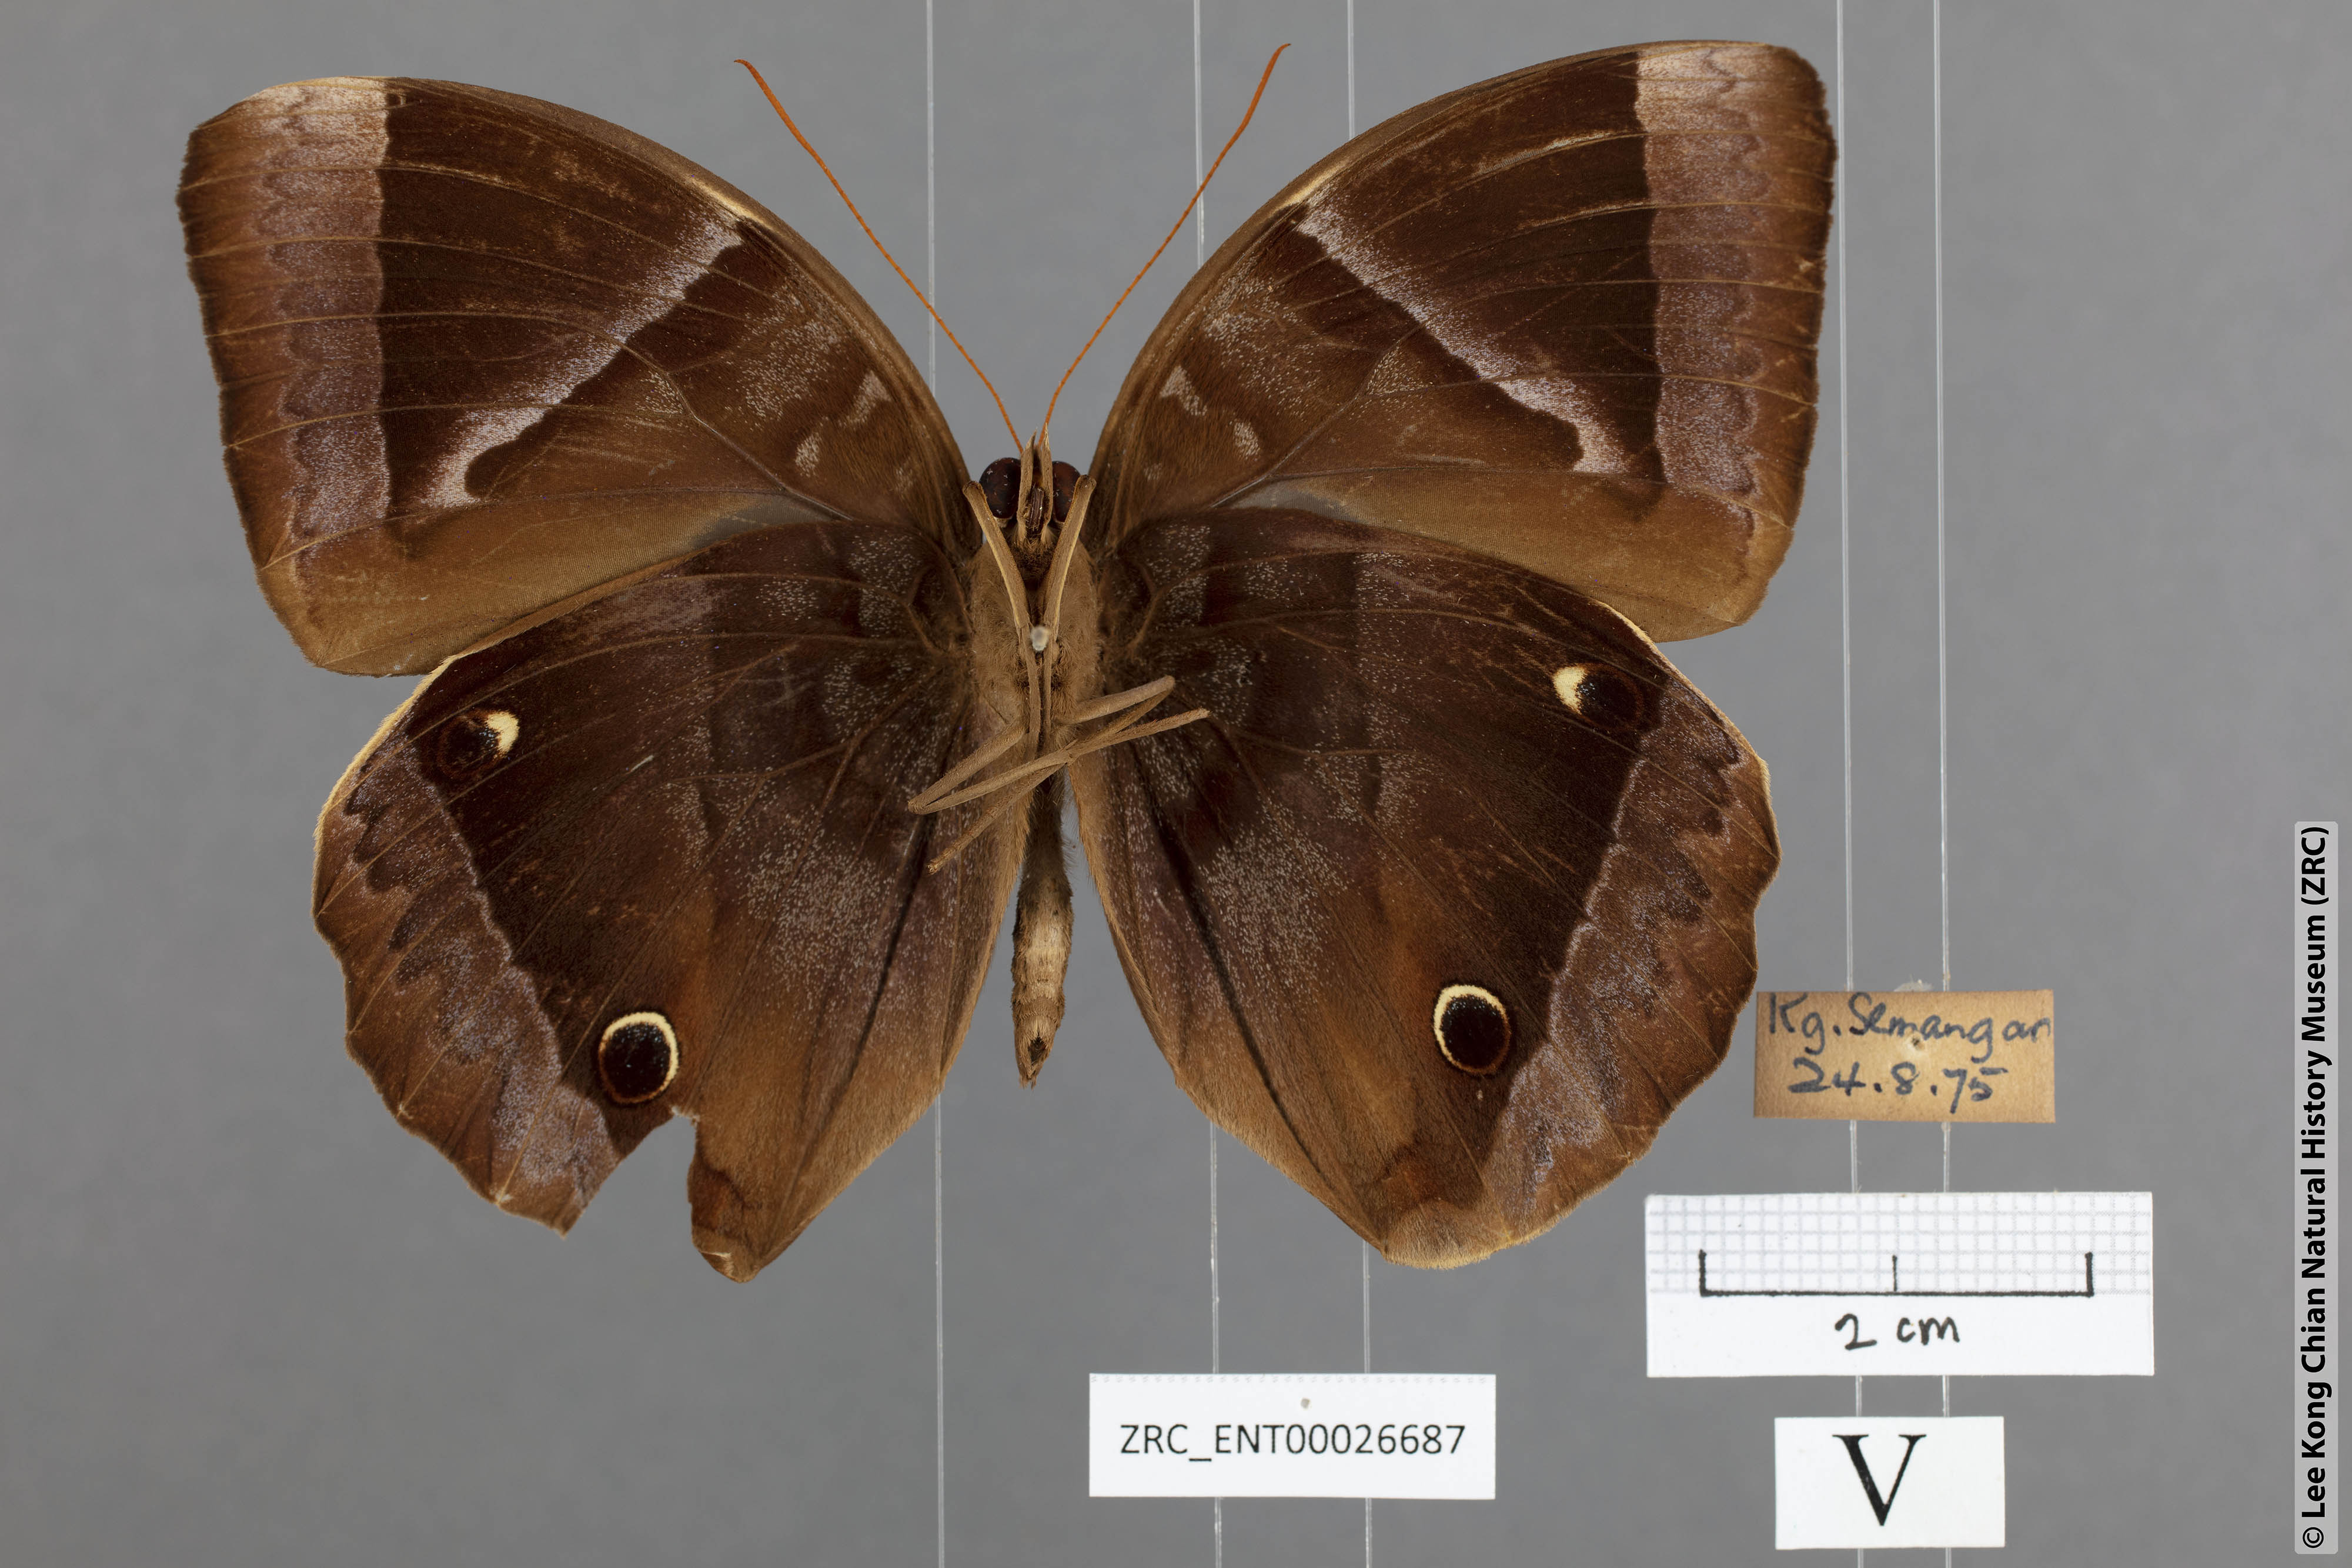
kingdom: Animalia
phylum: Arthropoda
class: Insecta
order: Lepidoptera
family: Nymphalidae
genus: Thaumantis
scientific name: Thaumantis klugius
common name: Dark blue jungle glory
